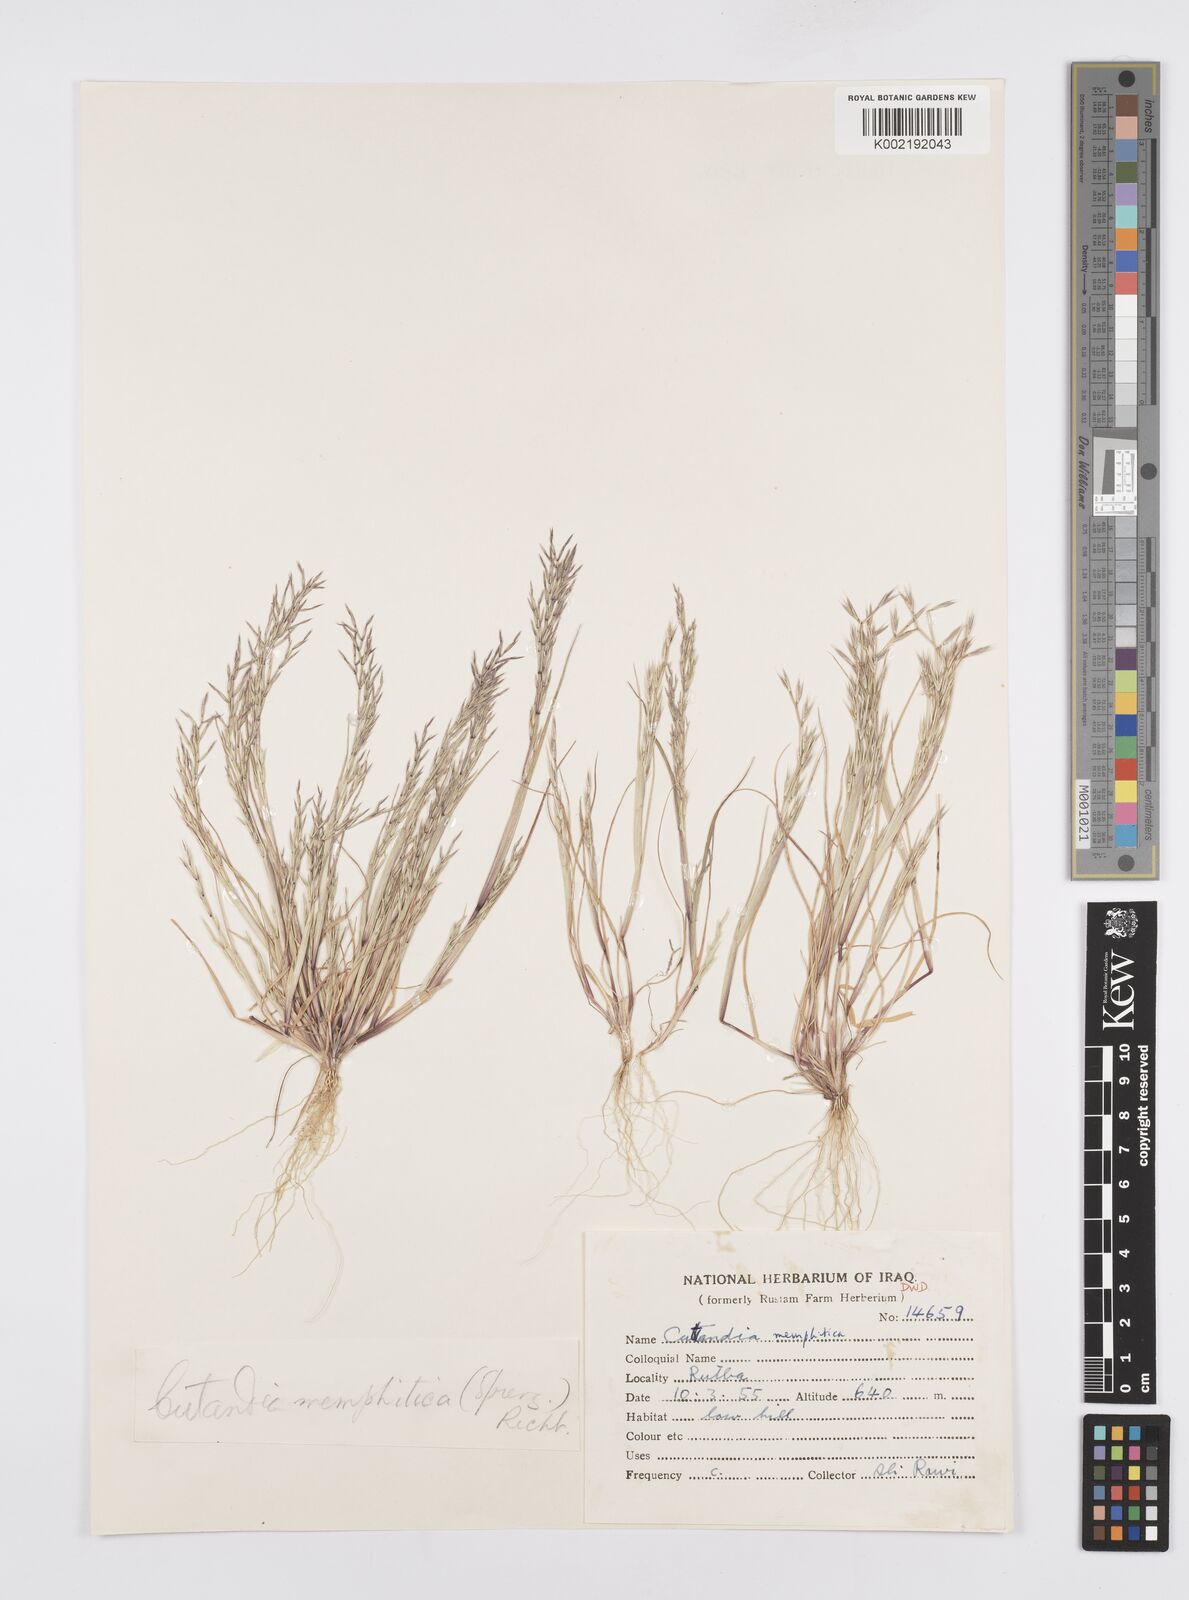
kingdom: Plantae
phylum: Tracheophyta
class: Liliopsida
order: Poales
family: Poaceae
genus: Cutandia
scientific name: Cutandia memphitica
